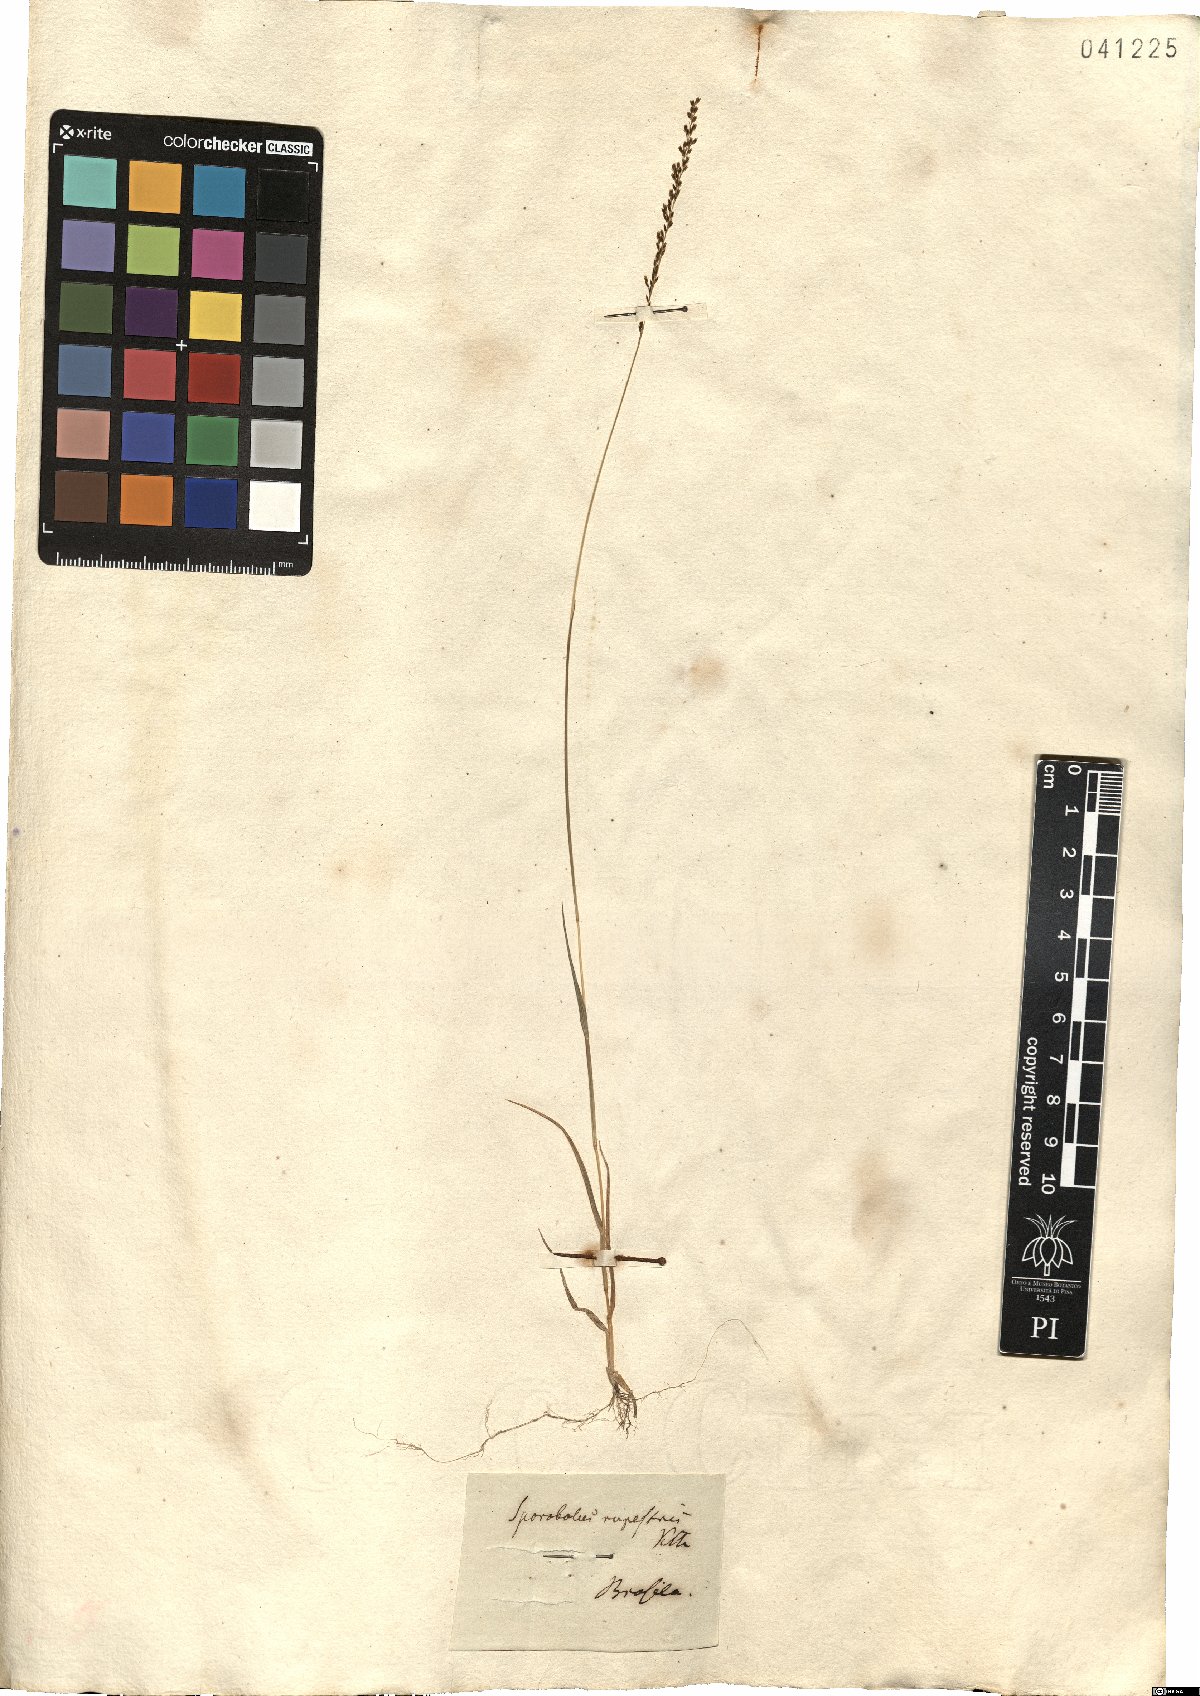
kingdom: Plantae
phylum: Tracheophyta
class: Liliopsida
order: Poales
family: Poaceae
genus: Sporobolus
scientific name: Sporobolus pilifer
